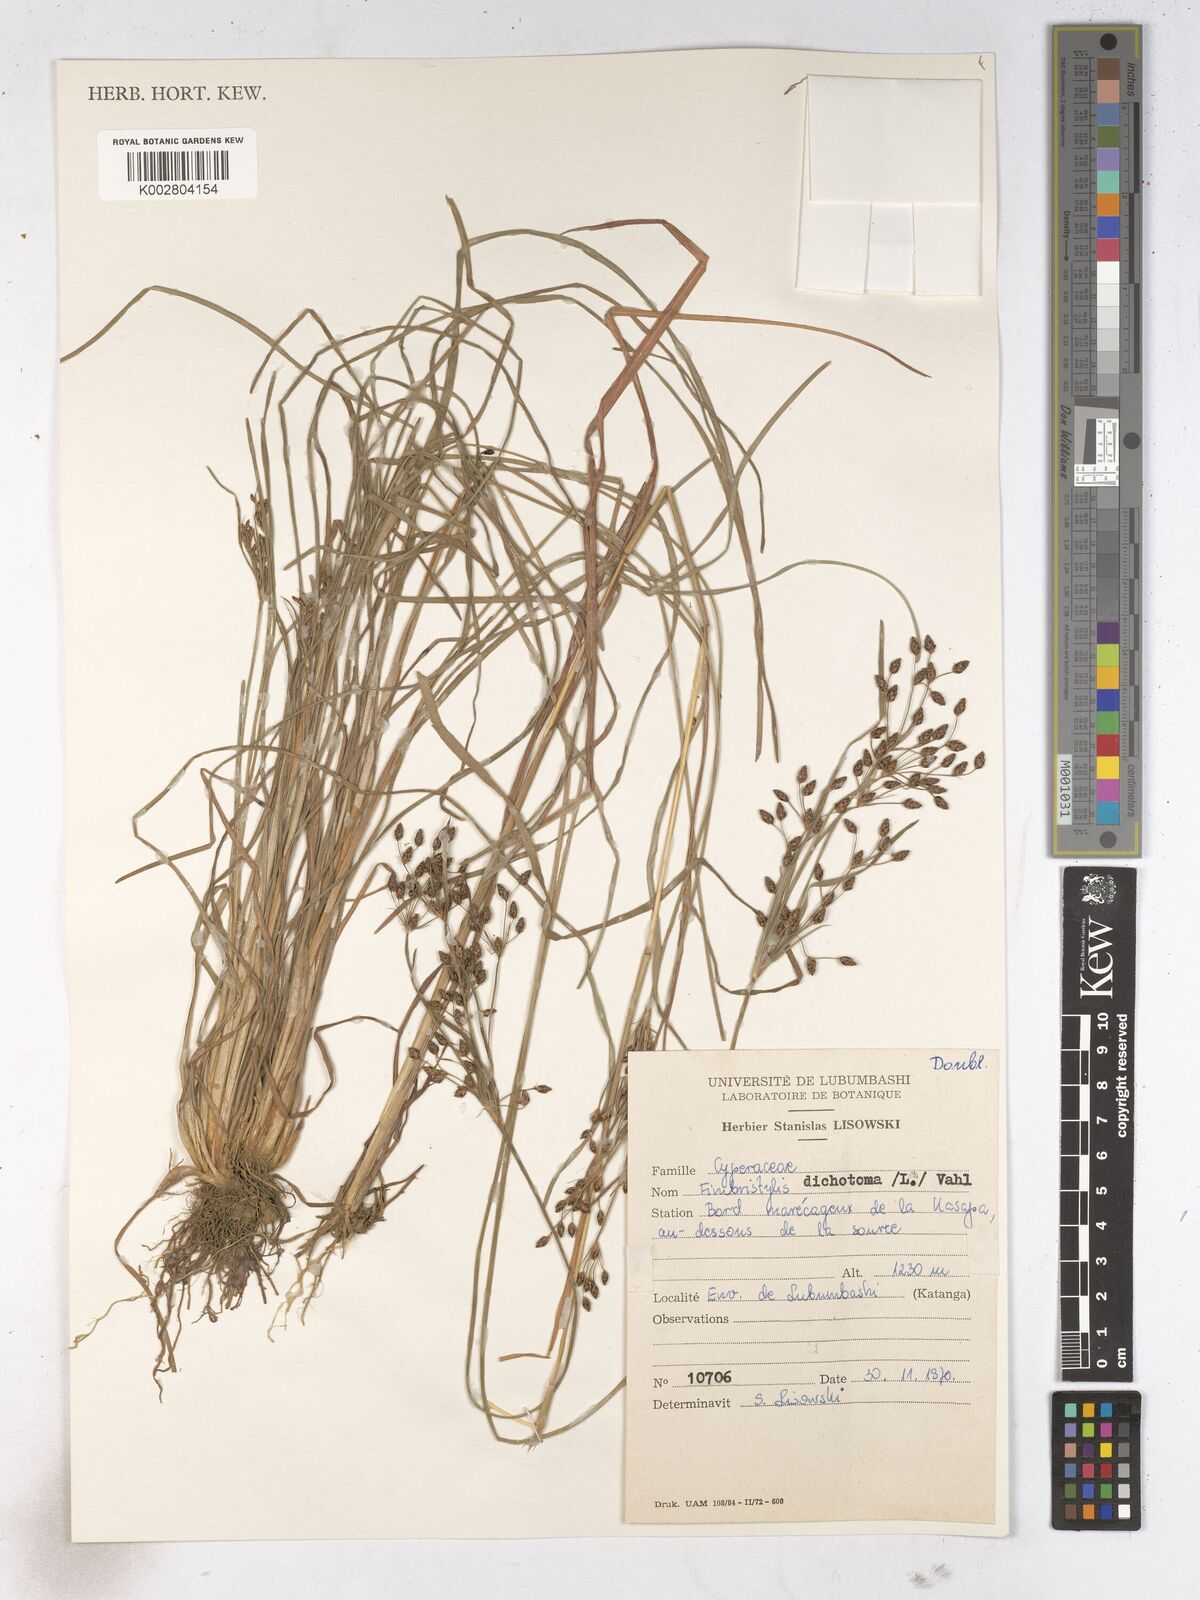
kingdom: Plantae
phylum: Tracheophyta
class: Liliopsida
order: Poales
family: Cyperaceae
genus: Fimbristylis
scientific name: Fimbristylis dichotoma
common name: Forked fimbry
